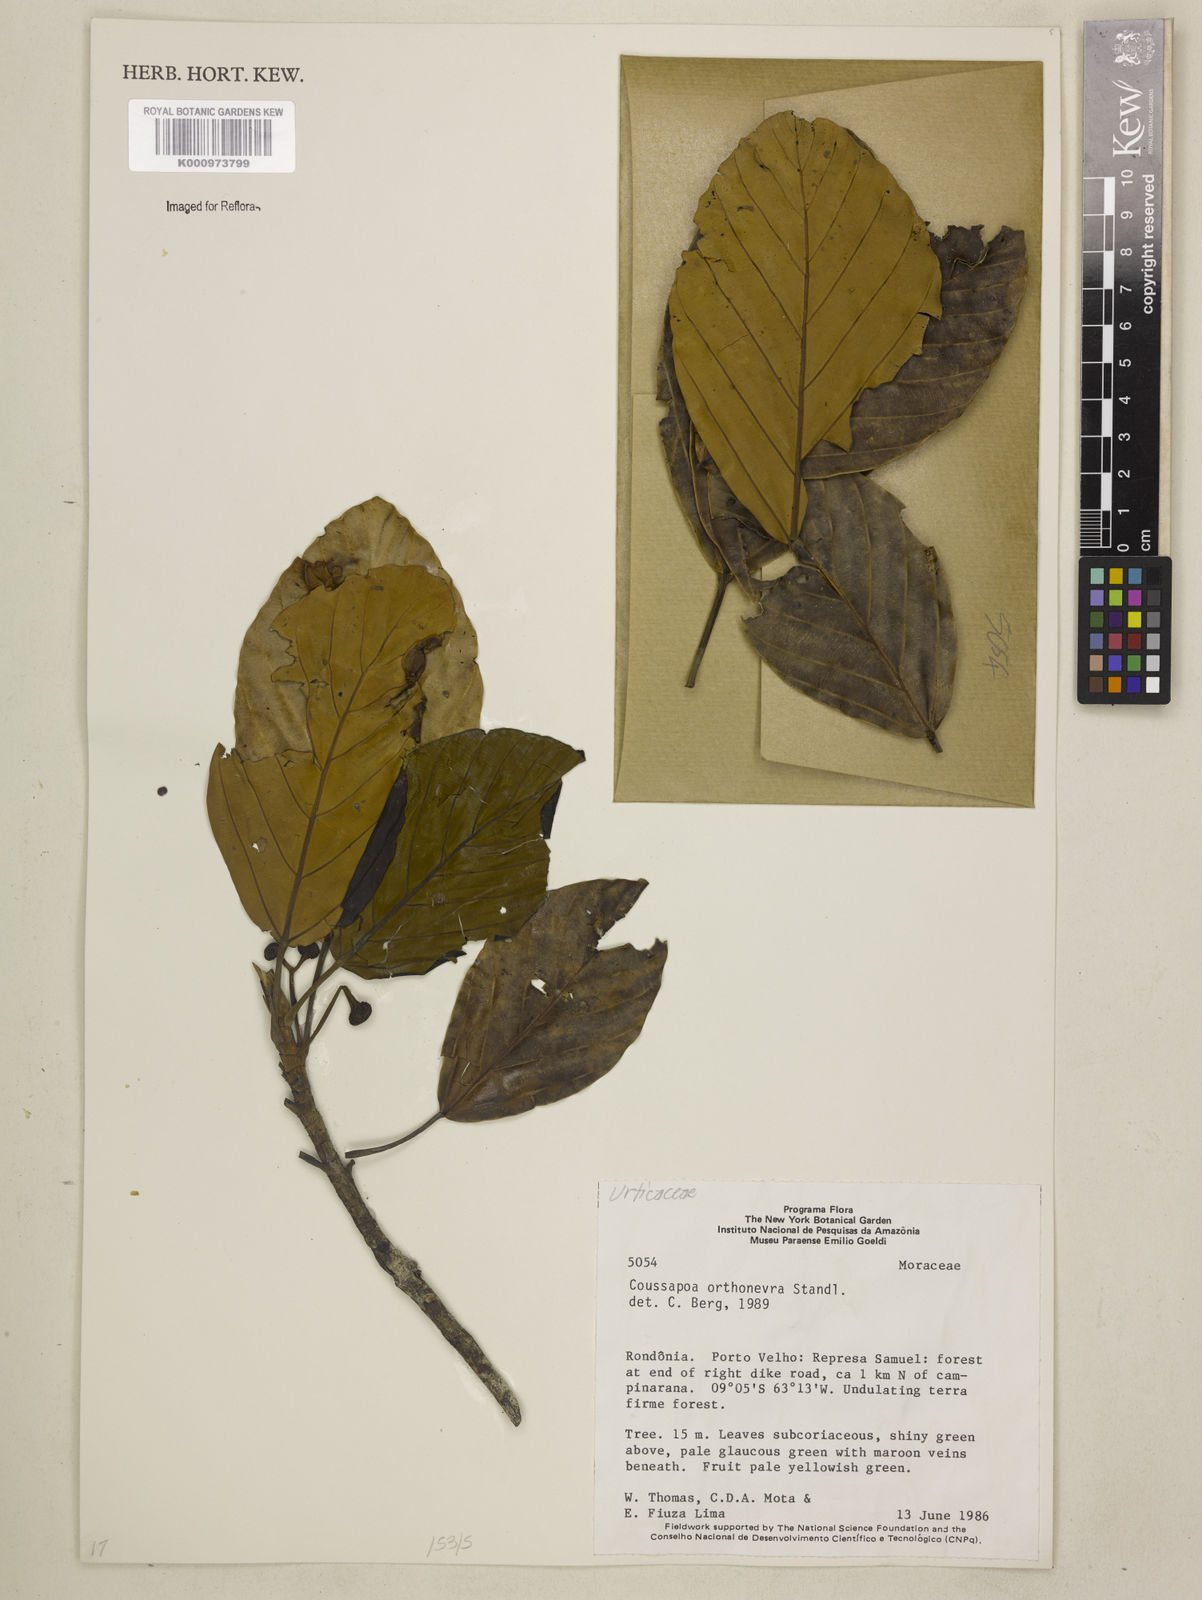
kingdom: Plantae
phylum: Tracheophyta
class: Magnoliopsida
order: Rosales
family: Urticaceae
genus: Coussapoa
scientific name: Coussapoa orthoneura
